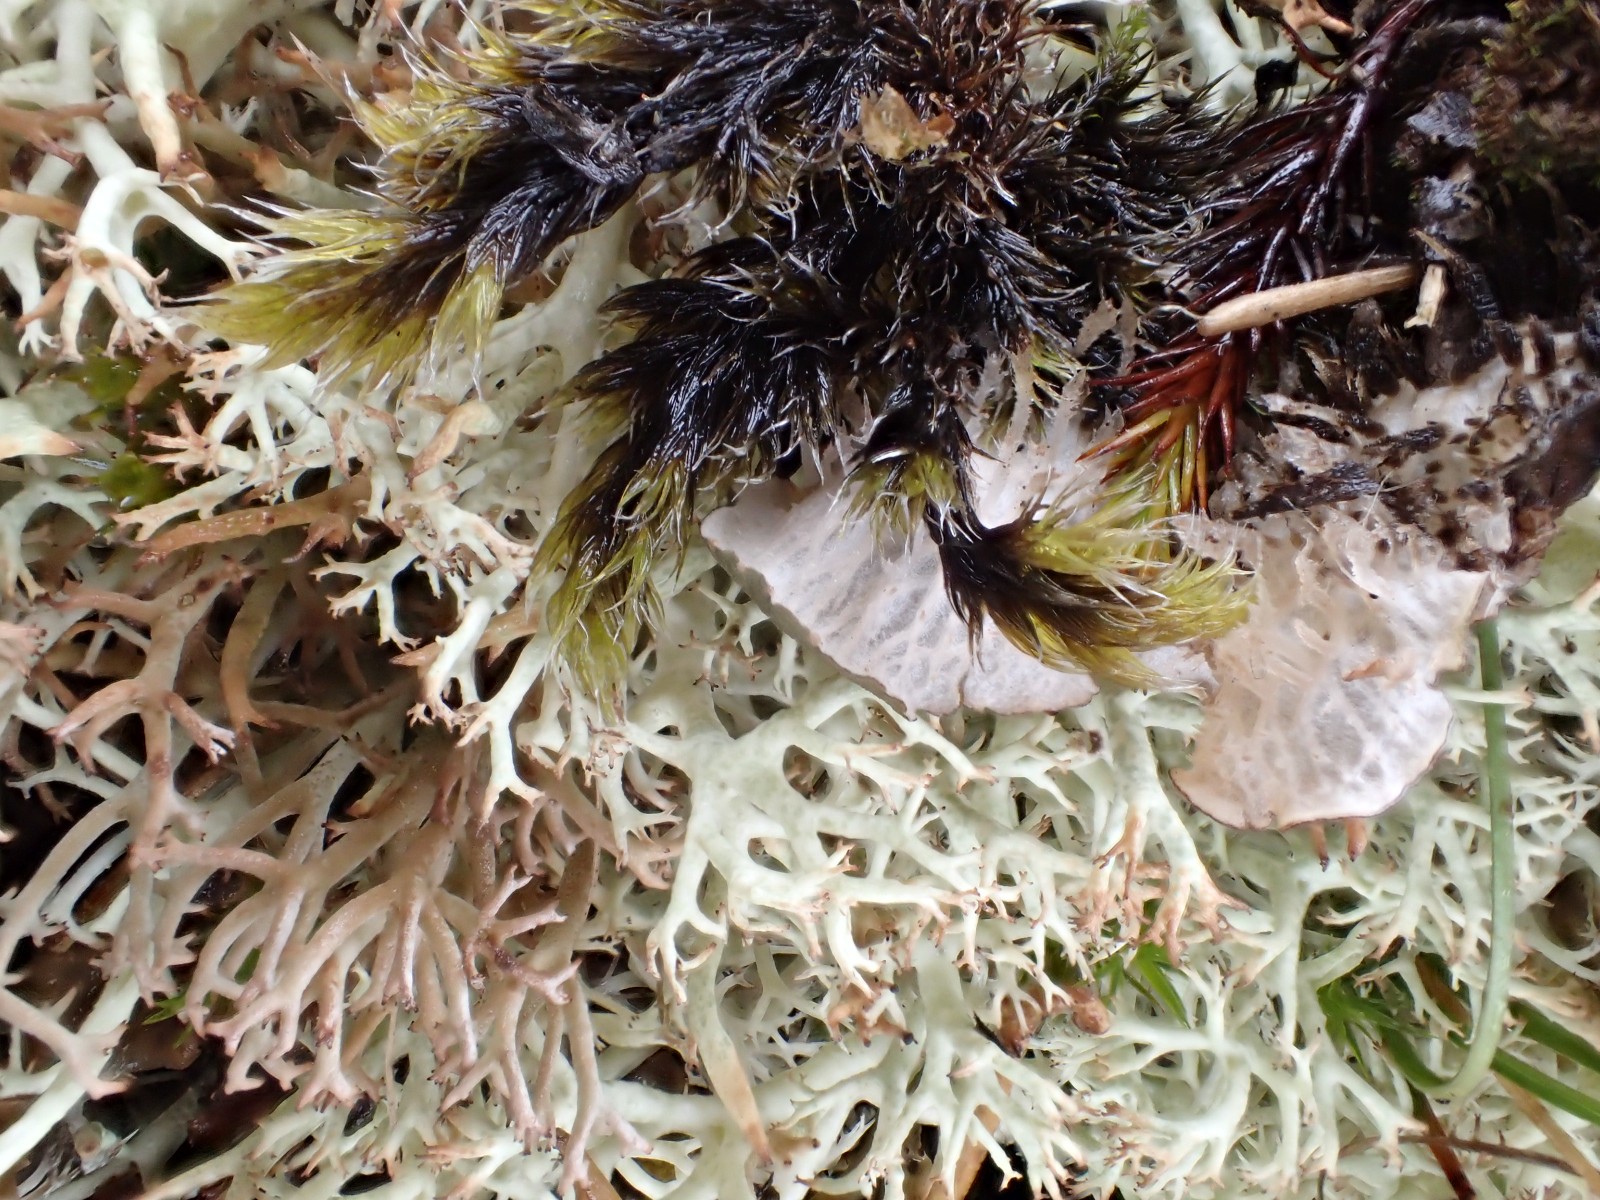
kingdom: Fungi
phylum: Ascomycota
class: Lecanoromycetes
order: Peltigerales
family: Peltigeraceae
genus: Peltigera
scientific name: Peltigera membranacea
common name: tynd skjoldlav
